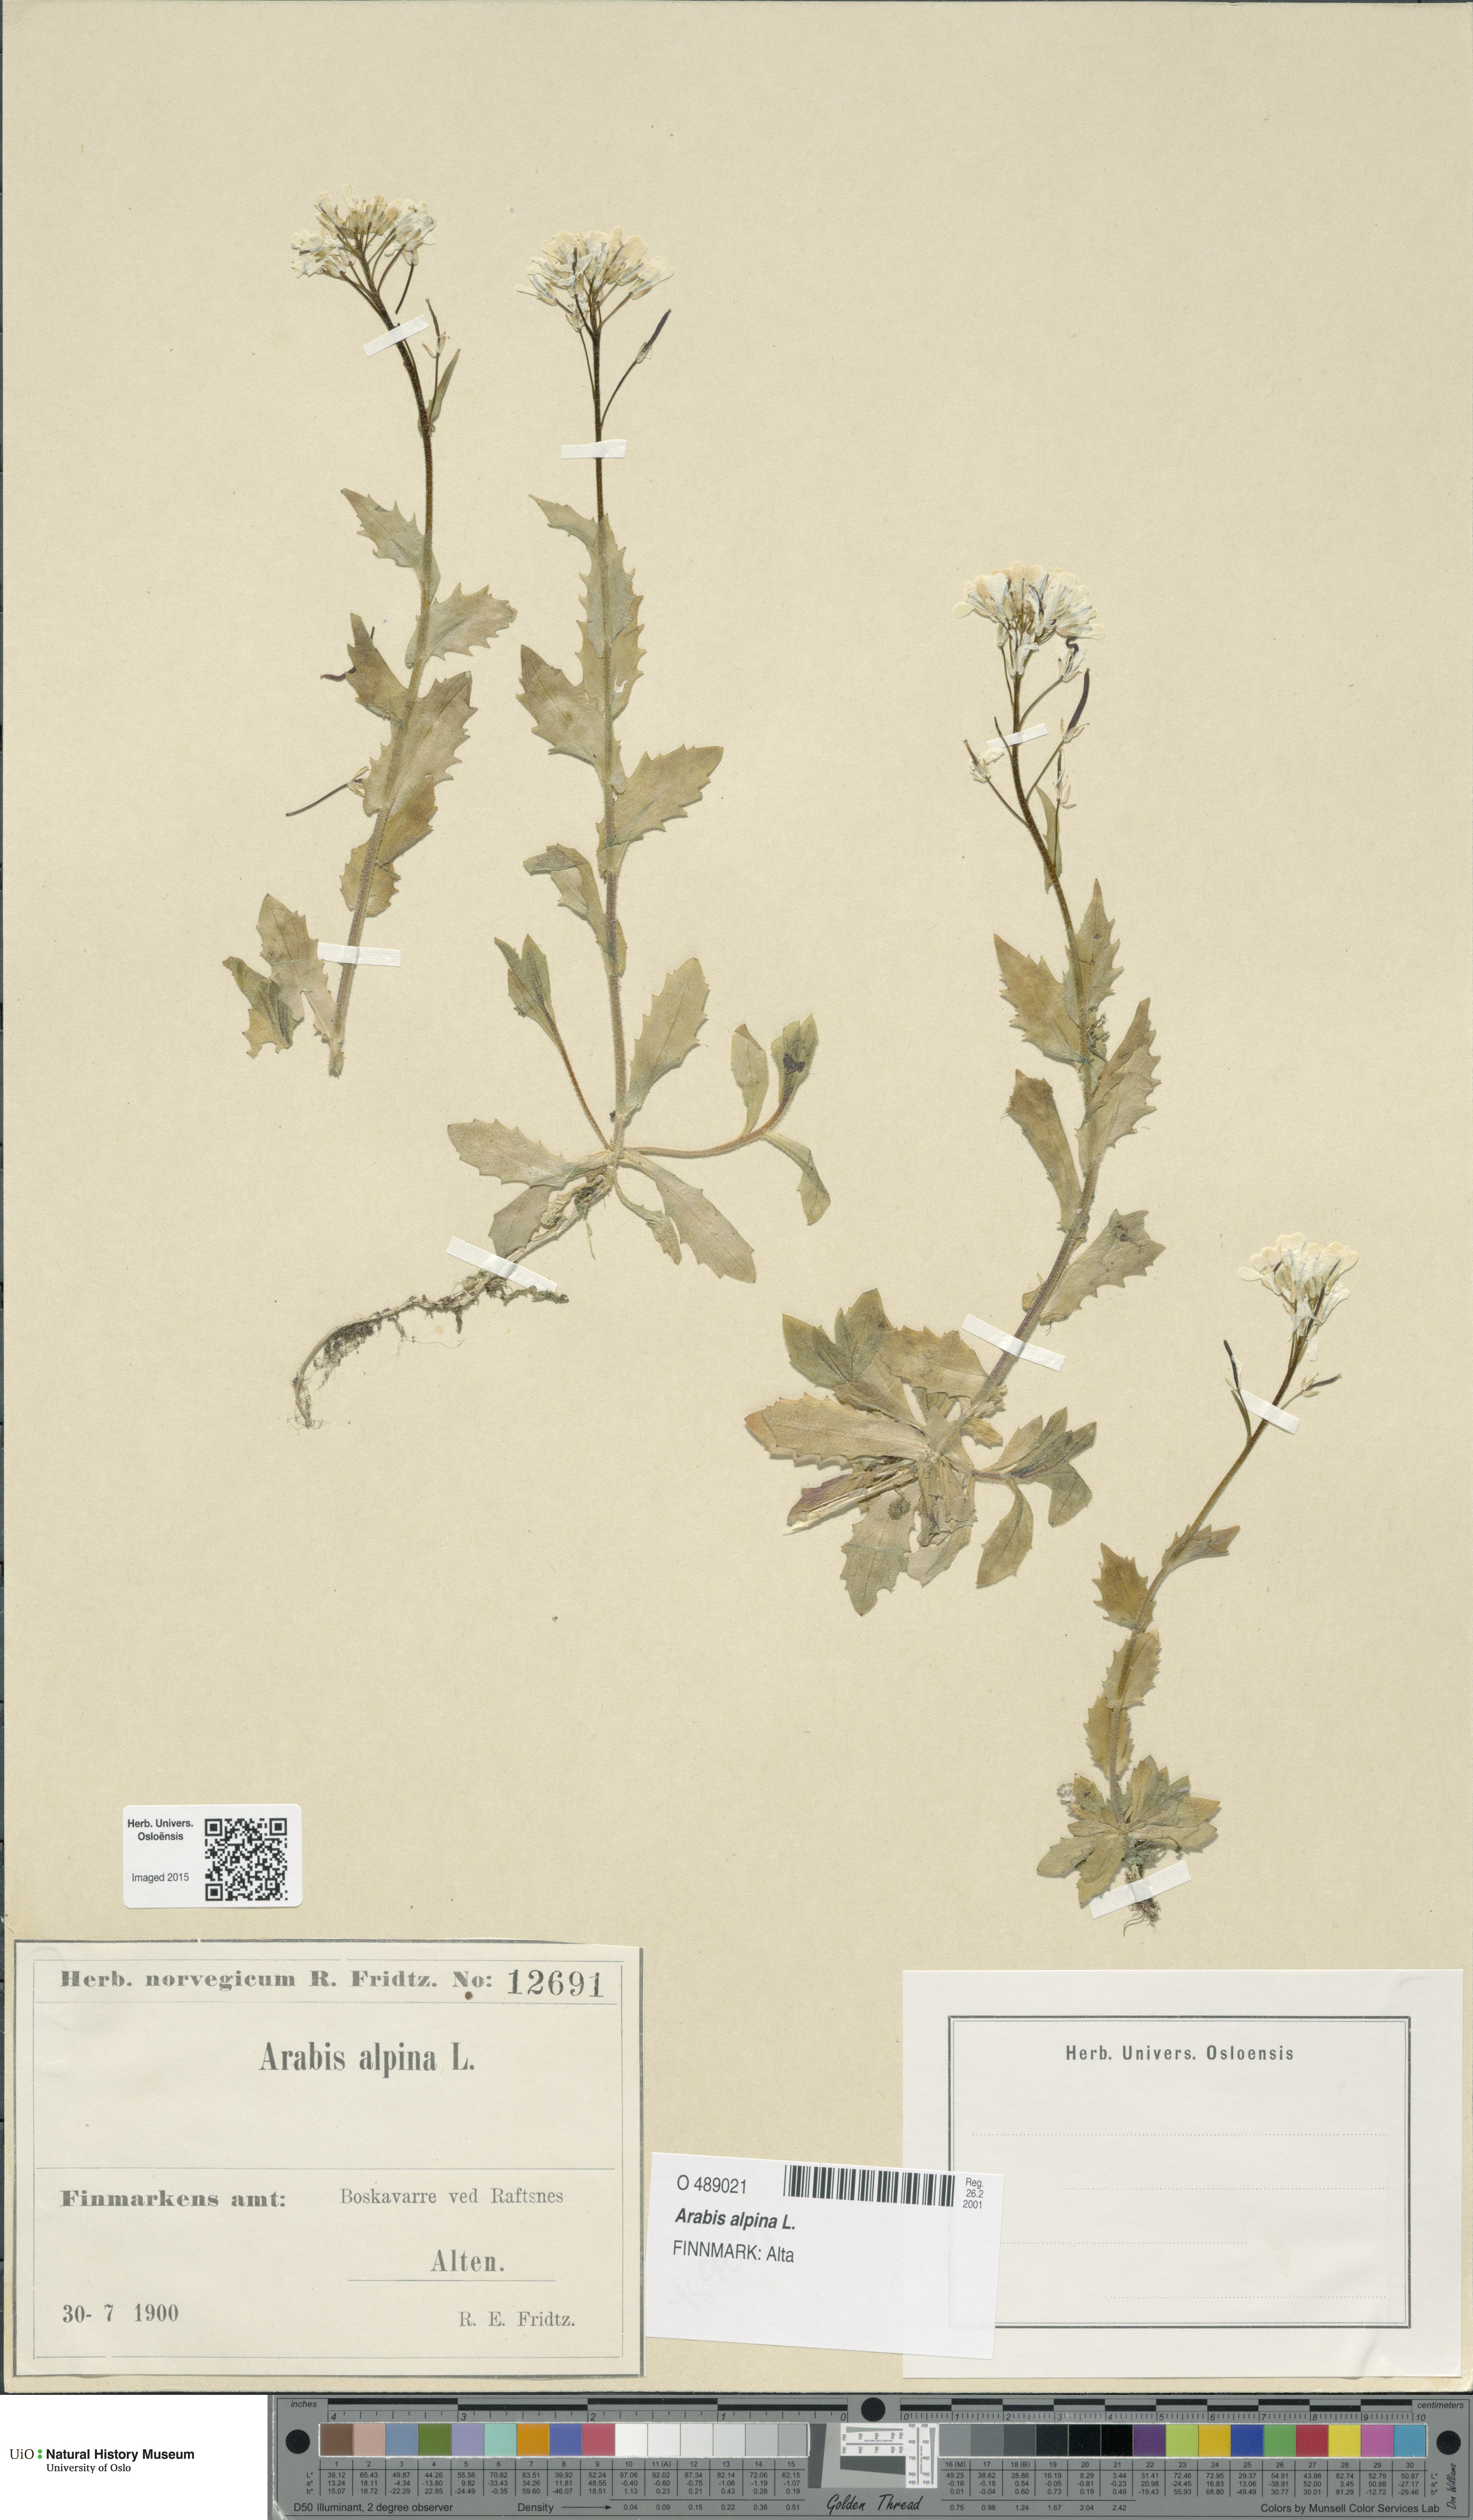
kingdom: Plantae
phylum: Tracheophyta
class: Magnoliopsida
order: Brassicales
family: Brassicaceae
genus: Arabis
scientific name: Arabis alpina
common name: Alpine rock-cress
